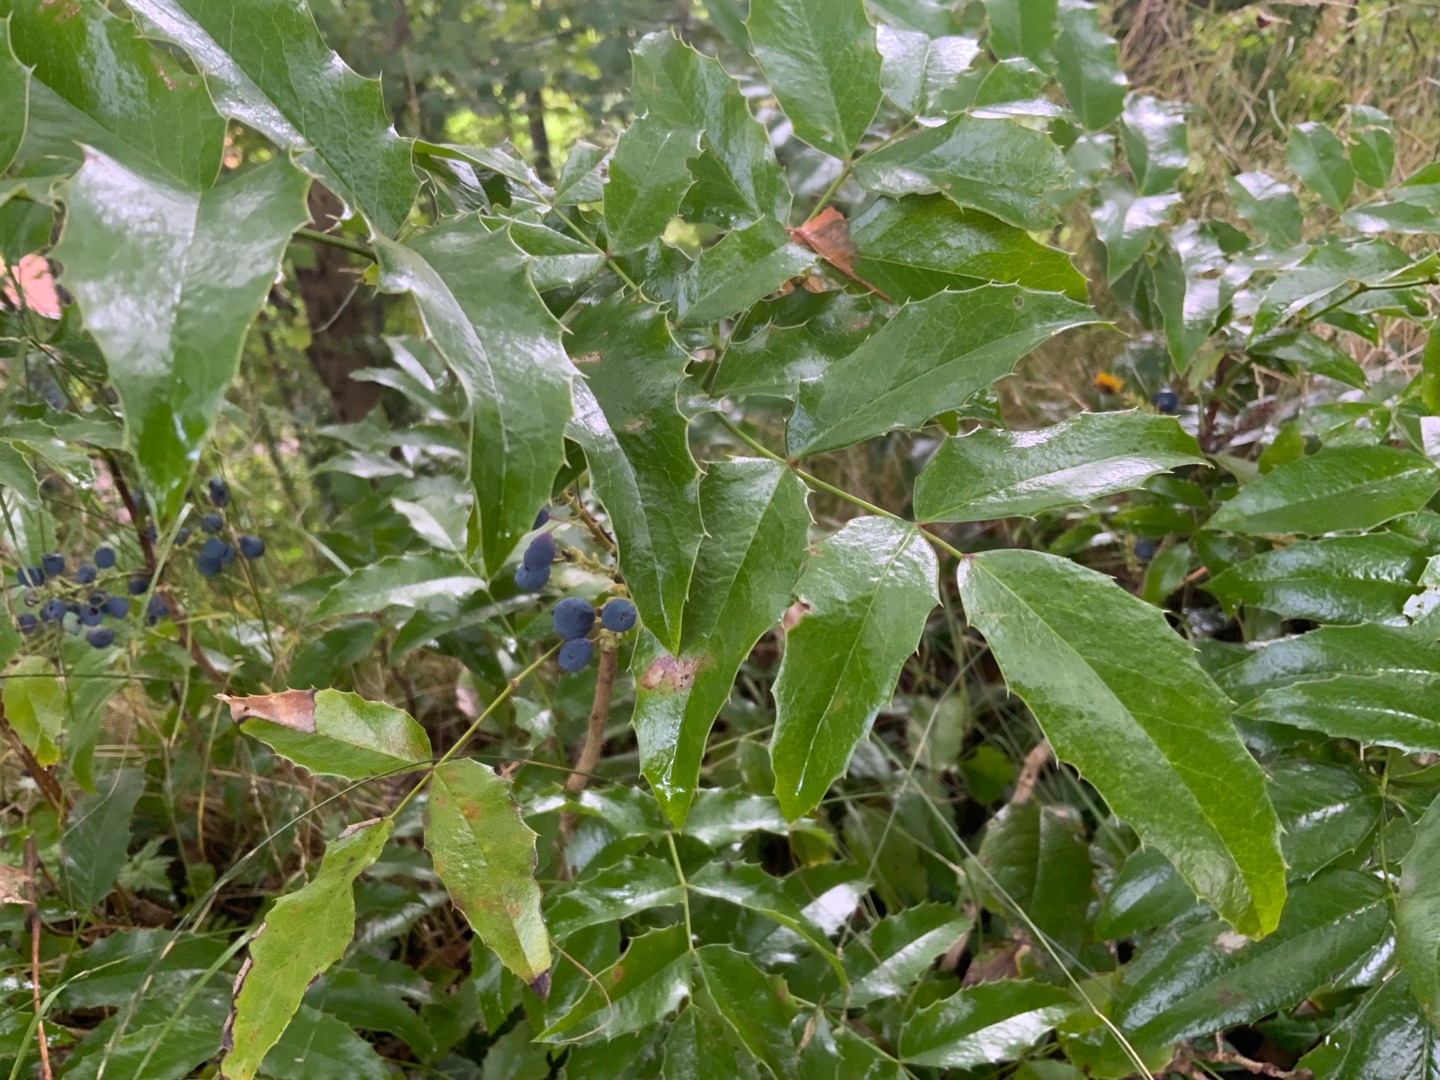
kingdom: Plantae
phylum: Tracheophyta
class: Magnoliopsida
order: Ranunculales
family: Berberidaceae
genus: Mahonia
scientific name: Mahonia aquifolium
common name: Almindelig mahonie
